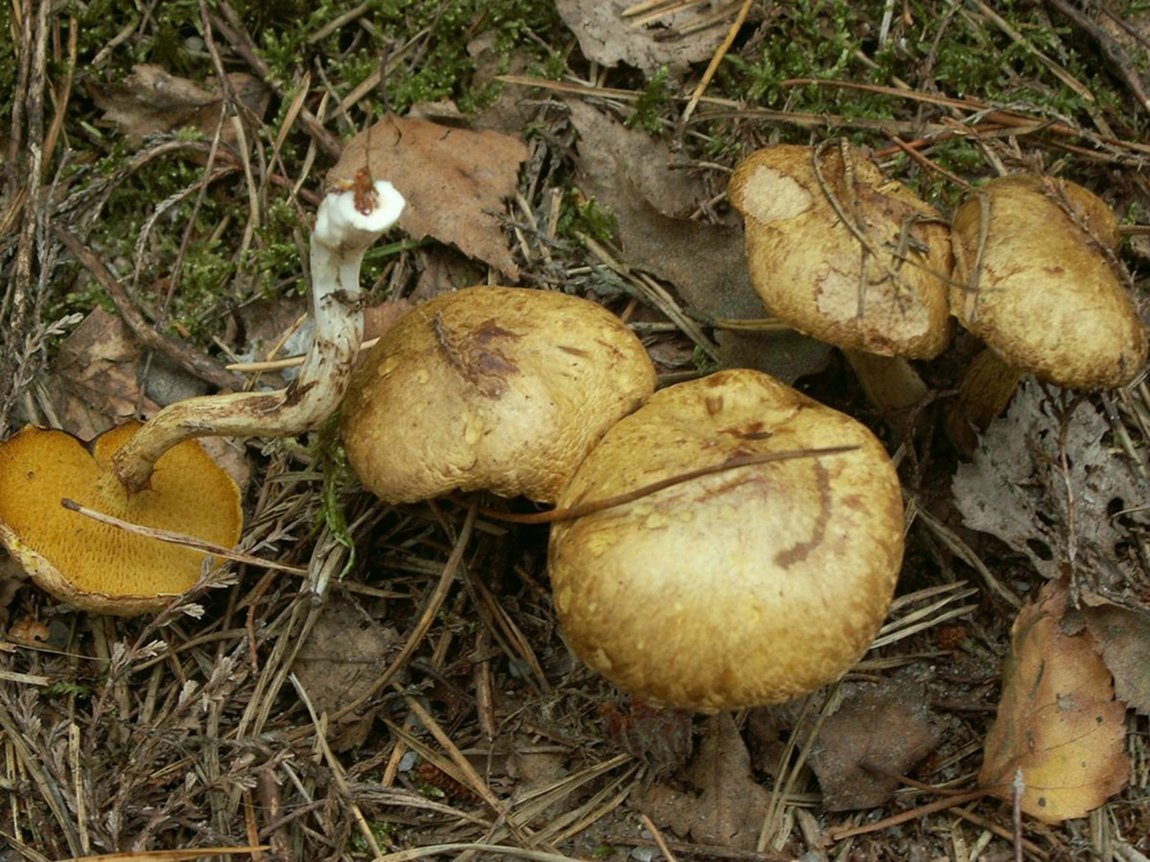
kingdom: Fungi
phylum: Basidiomycota
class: Agaricomycetes
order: Boletales
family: Suillaceae
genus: Suillus
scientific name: Suillus flavidus
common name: mose-slimrørhat
